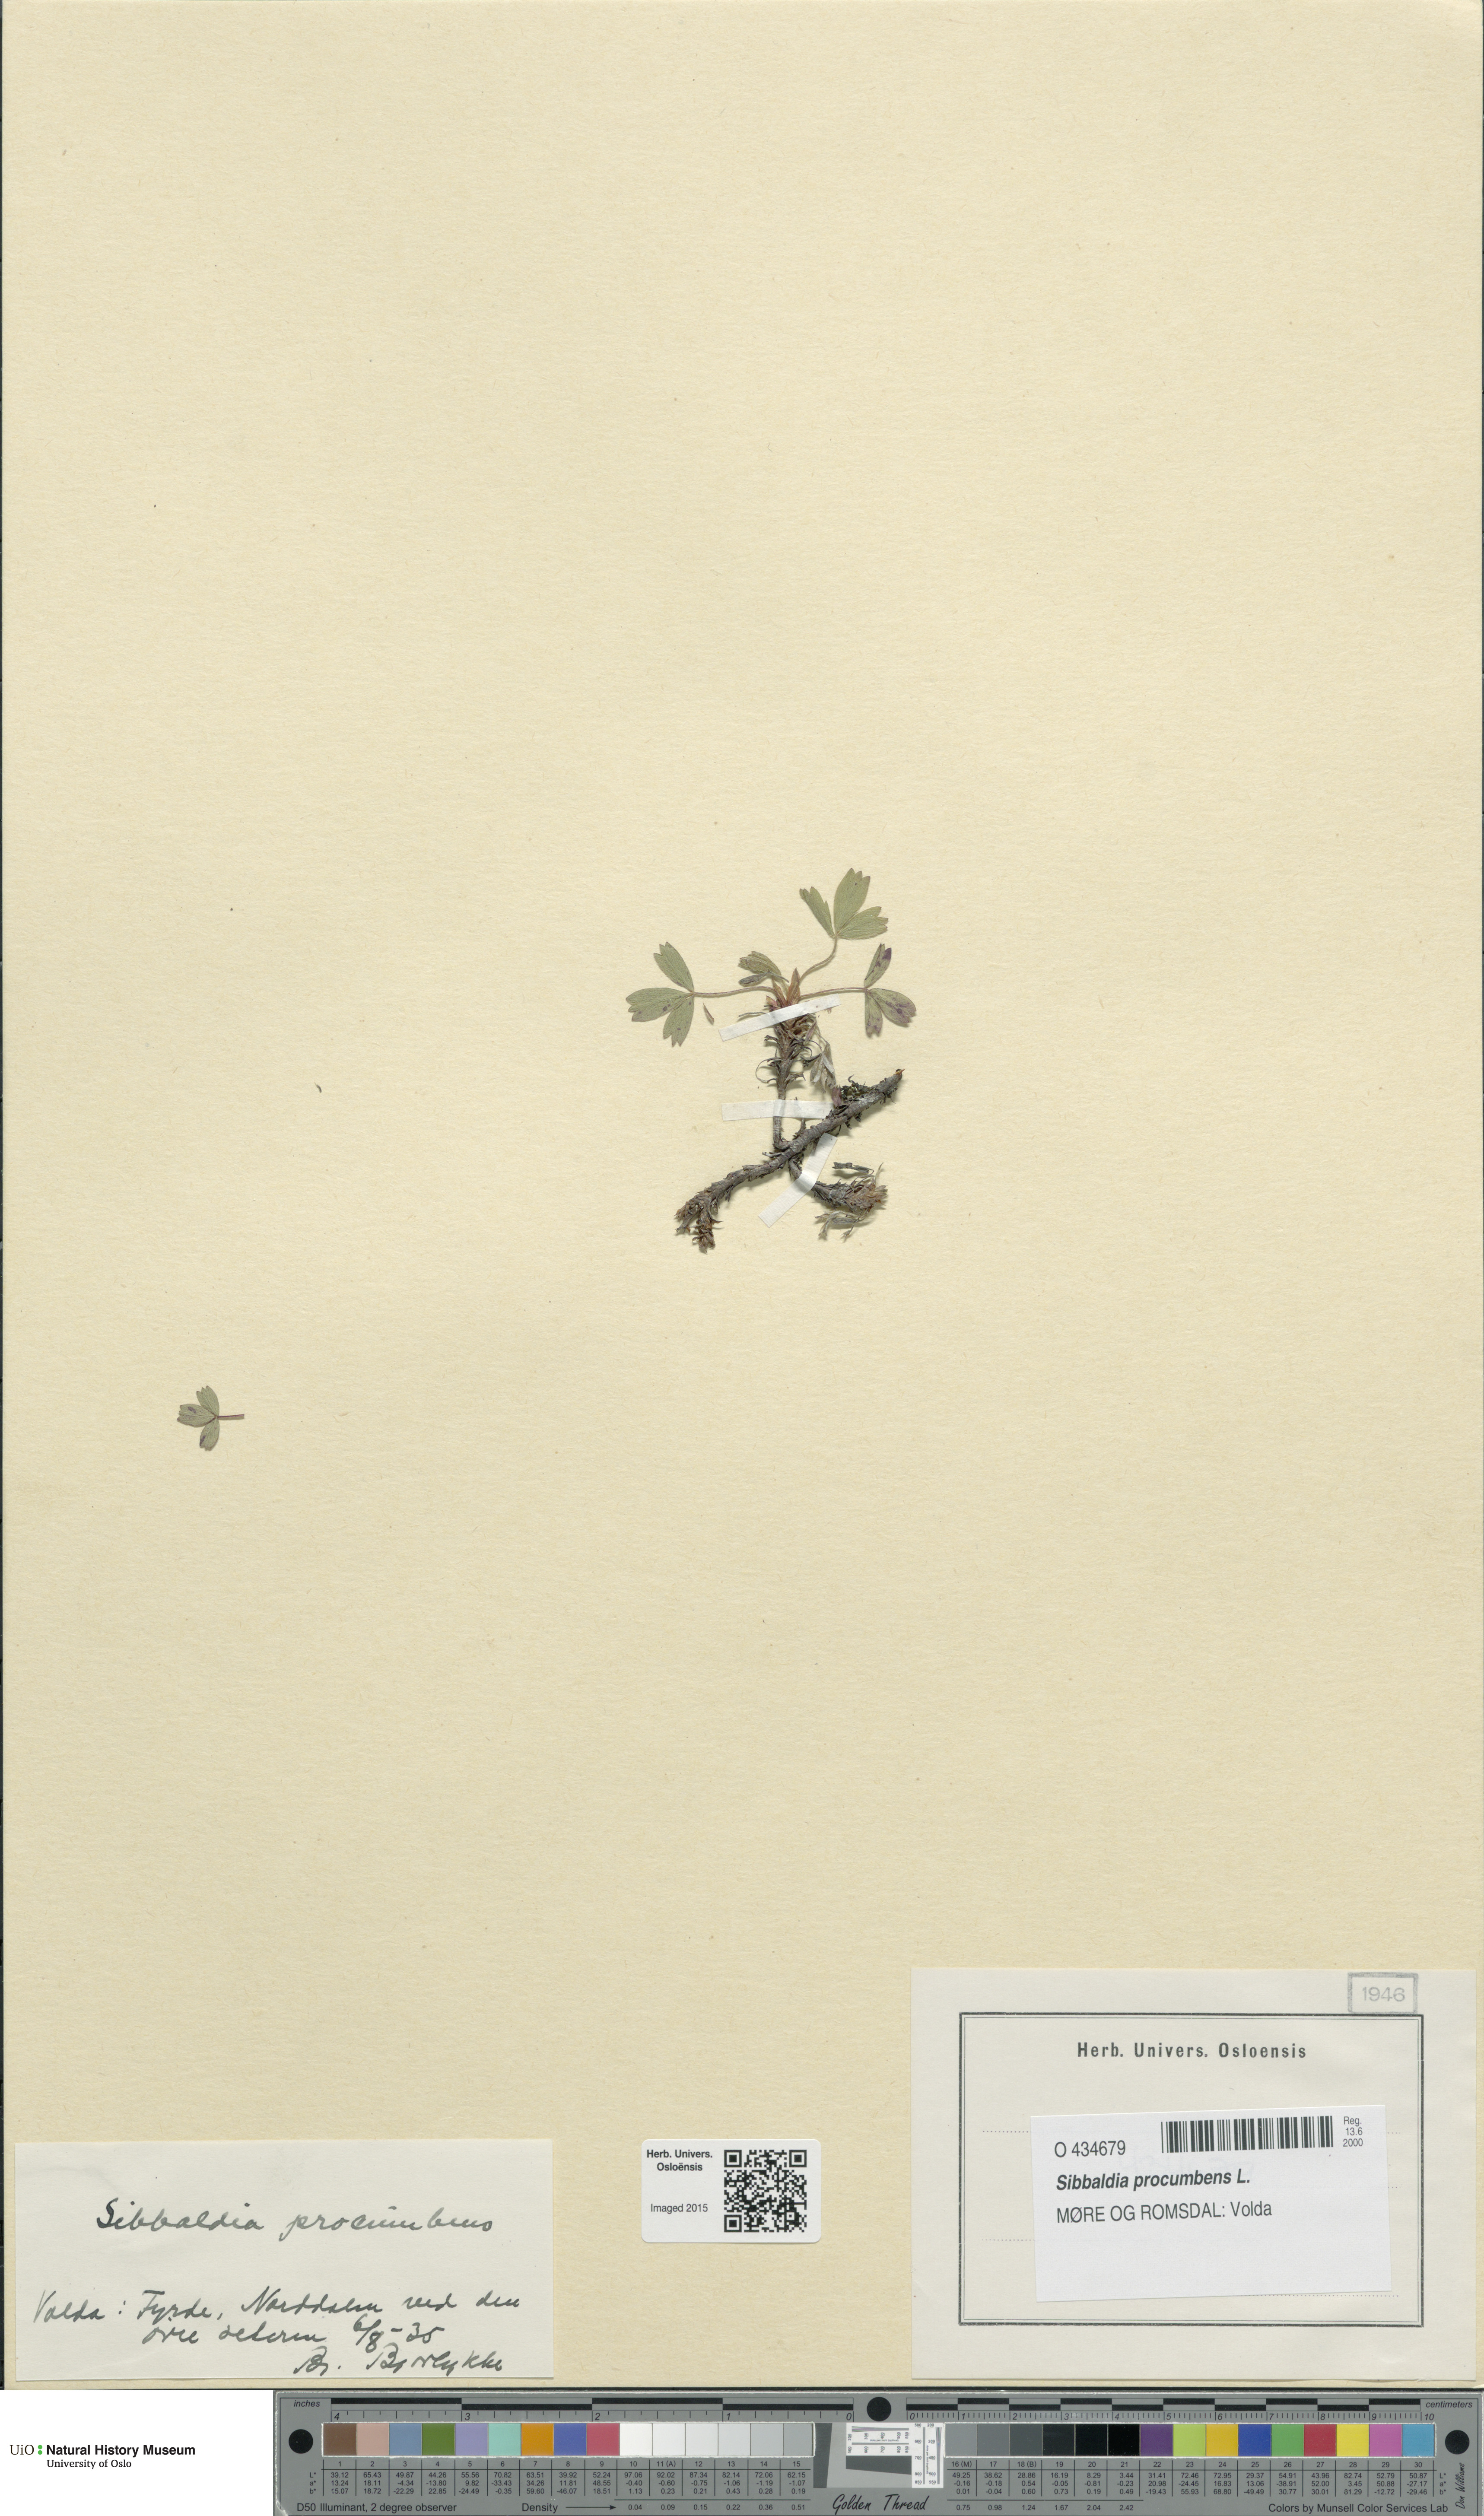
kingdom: Plantae
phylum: Tracheophyta
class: Magnoliopsida
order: Rosales
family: Rosaceae
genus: Sibbaldia
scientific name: Sibbaldia procumbens
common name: Creeping sibbaldia
